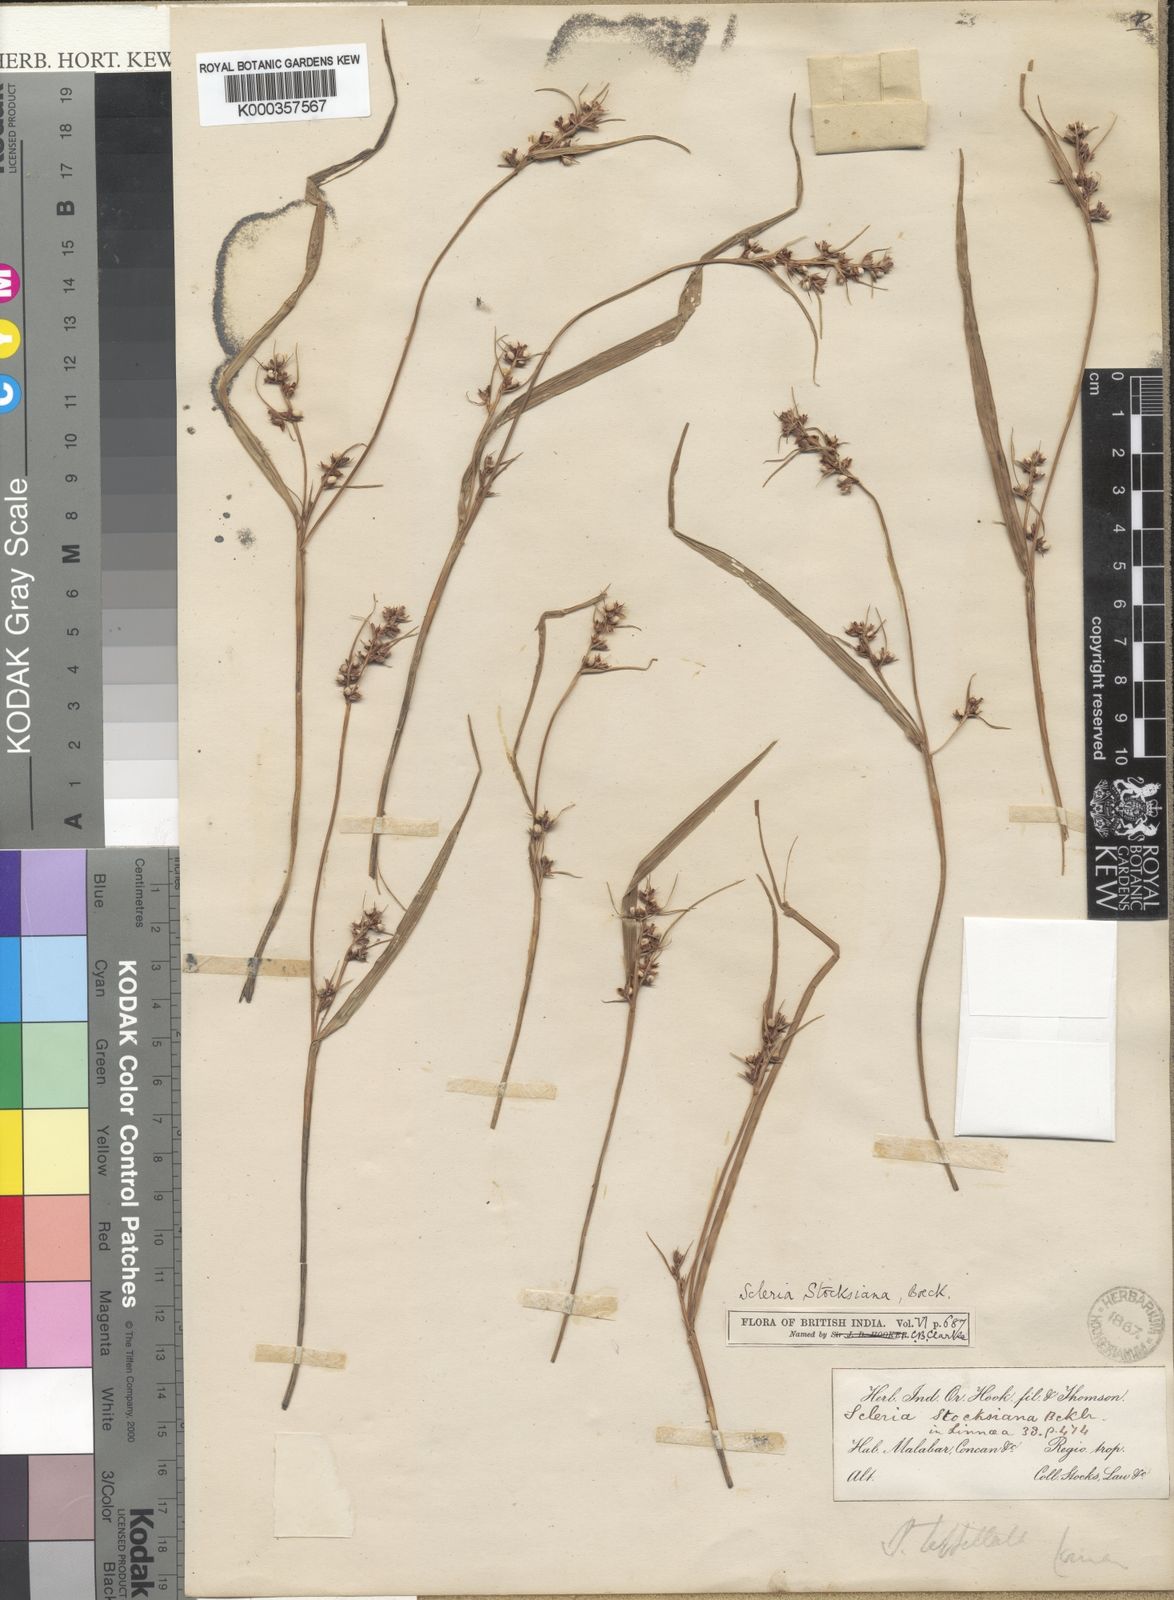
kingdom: Plantae
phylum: Tracheophyta
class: Liliopsida
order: Poales
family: Cyperaceae
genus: Scleria
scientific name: Scleria stocksiana
